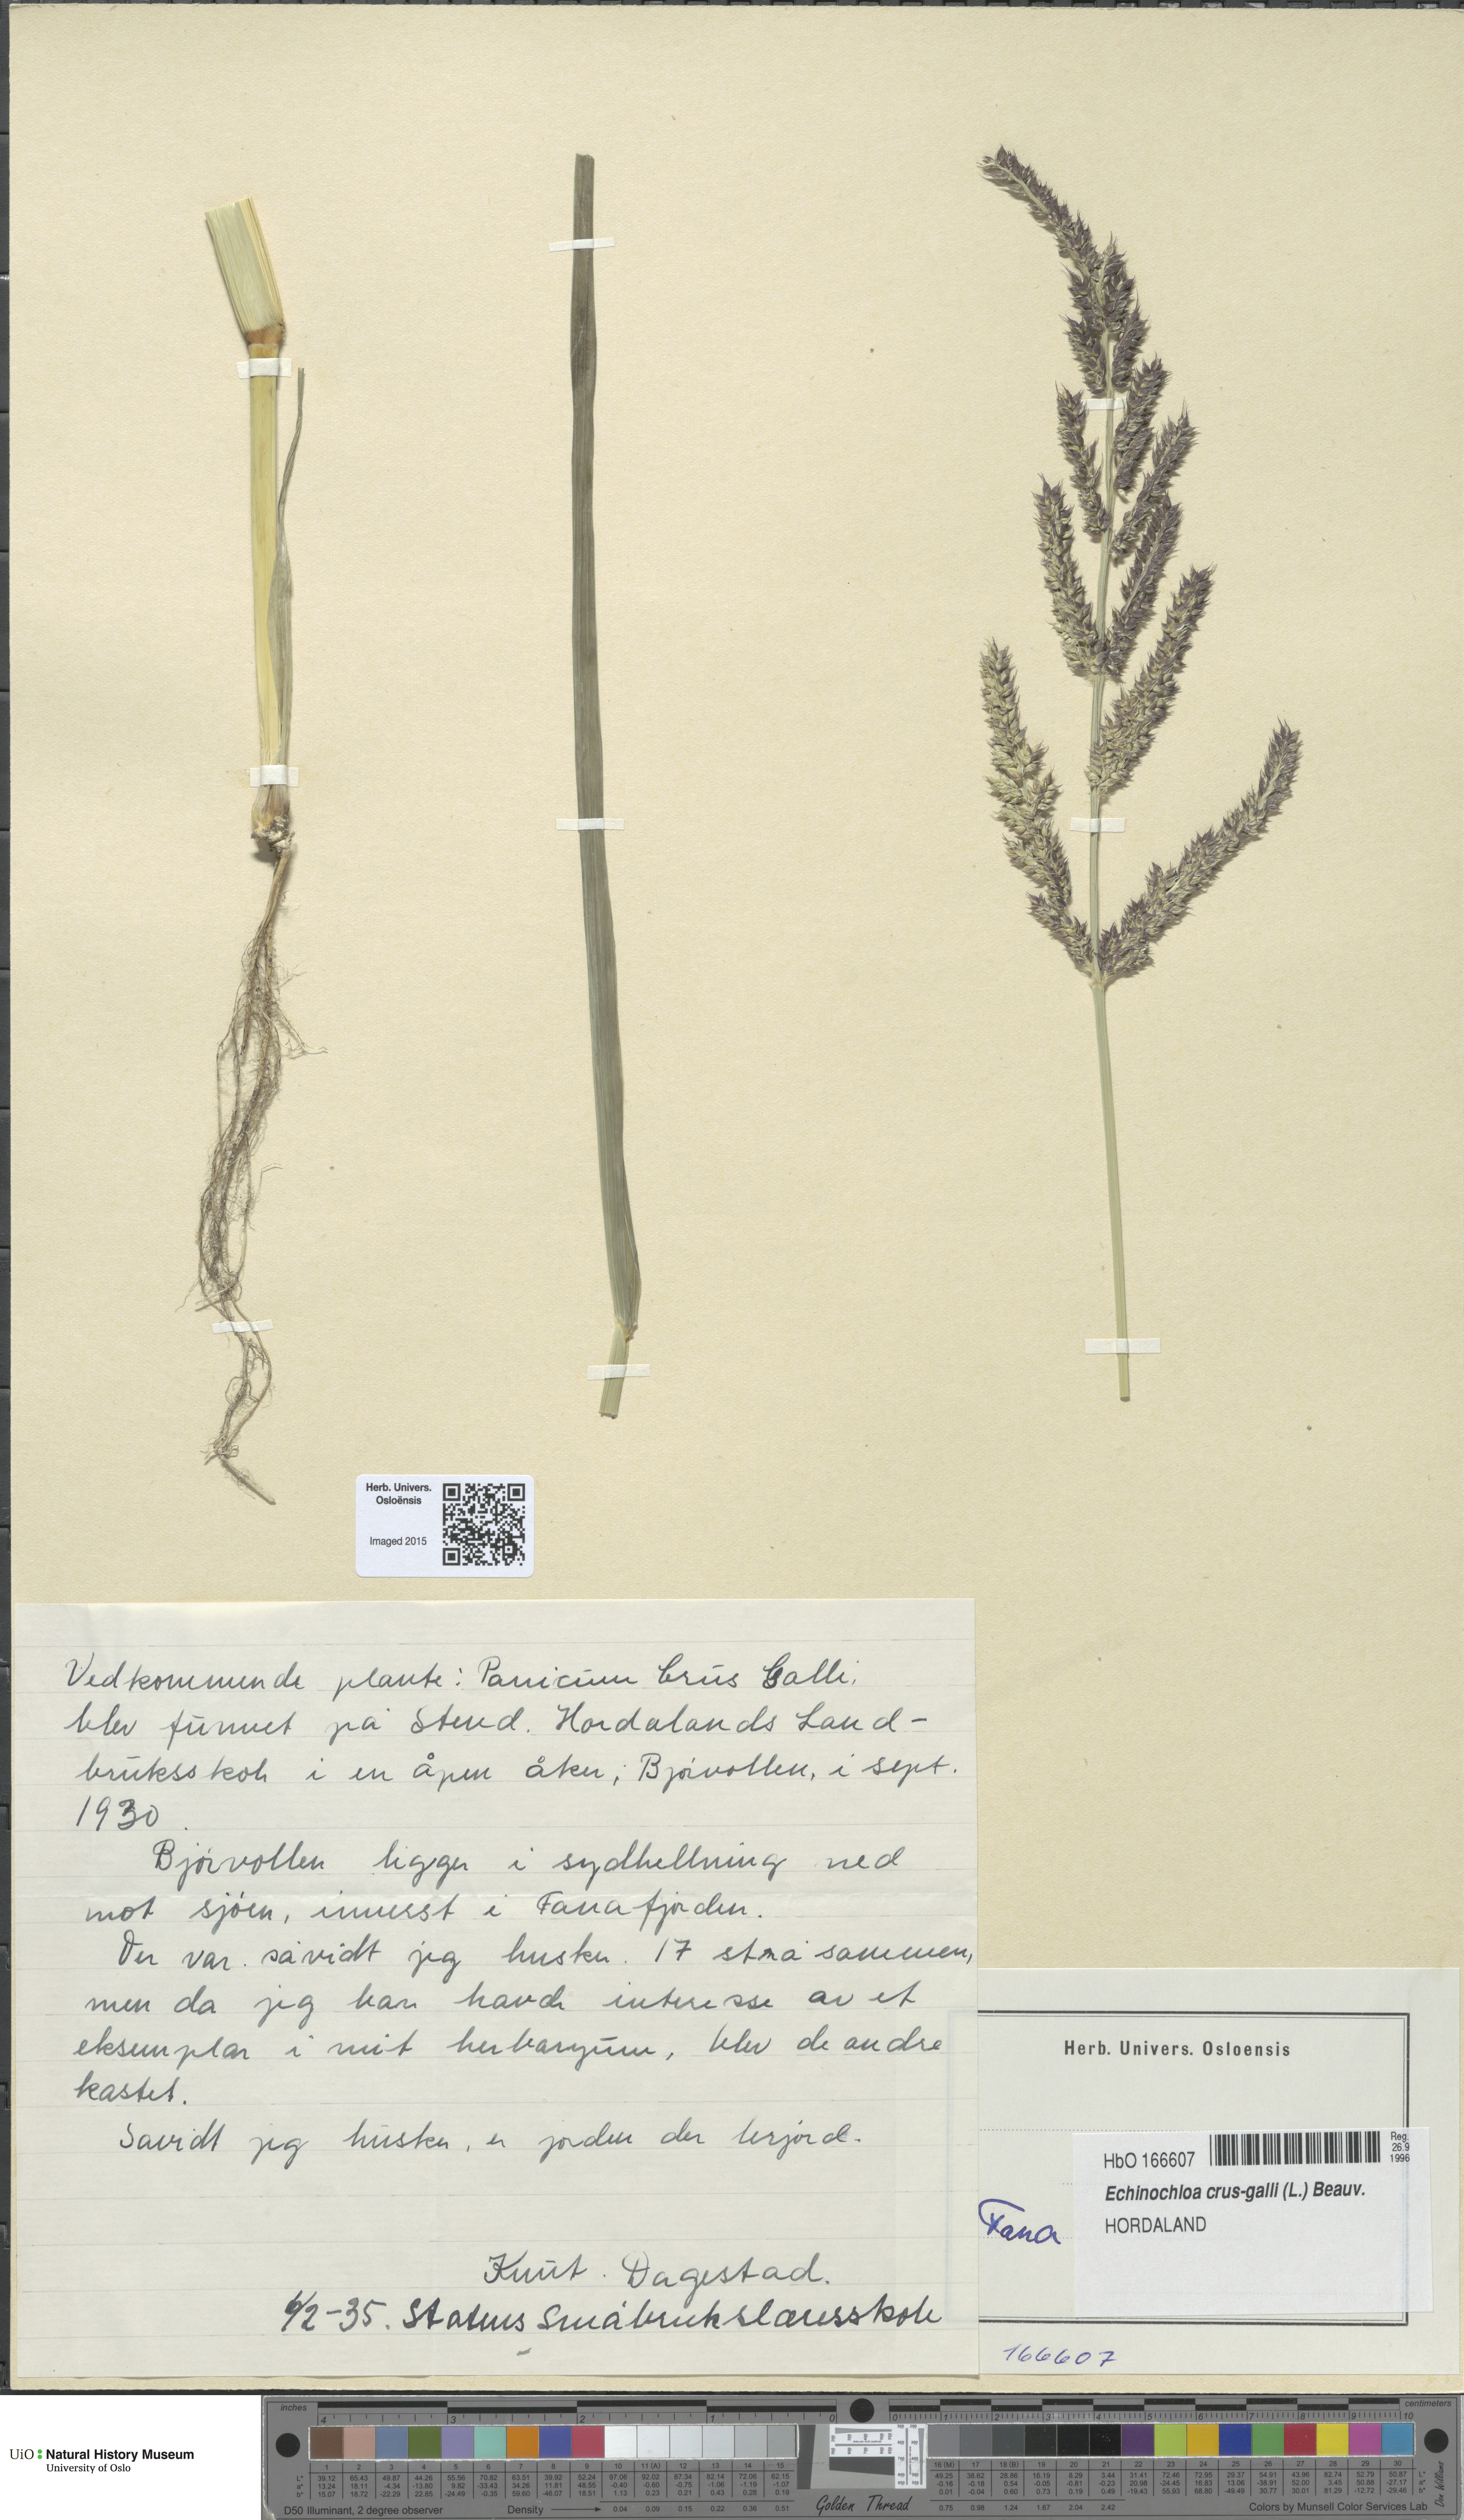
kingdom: Plantae
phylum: Tracheophyta
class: Liliopsida
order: Poales
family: Poaceae
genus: Echinochloa
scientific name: Echinochloa crus-galli
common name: Cockspur
